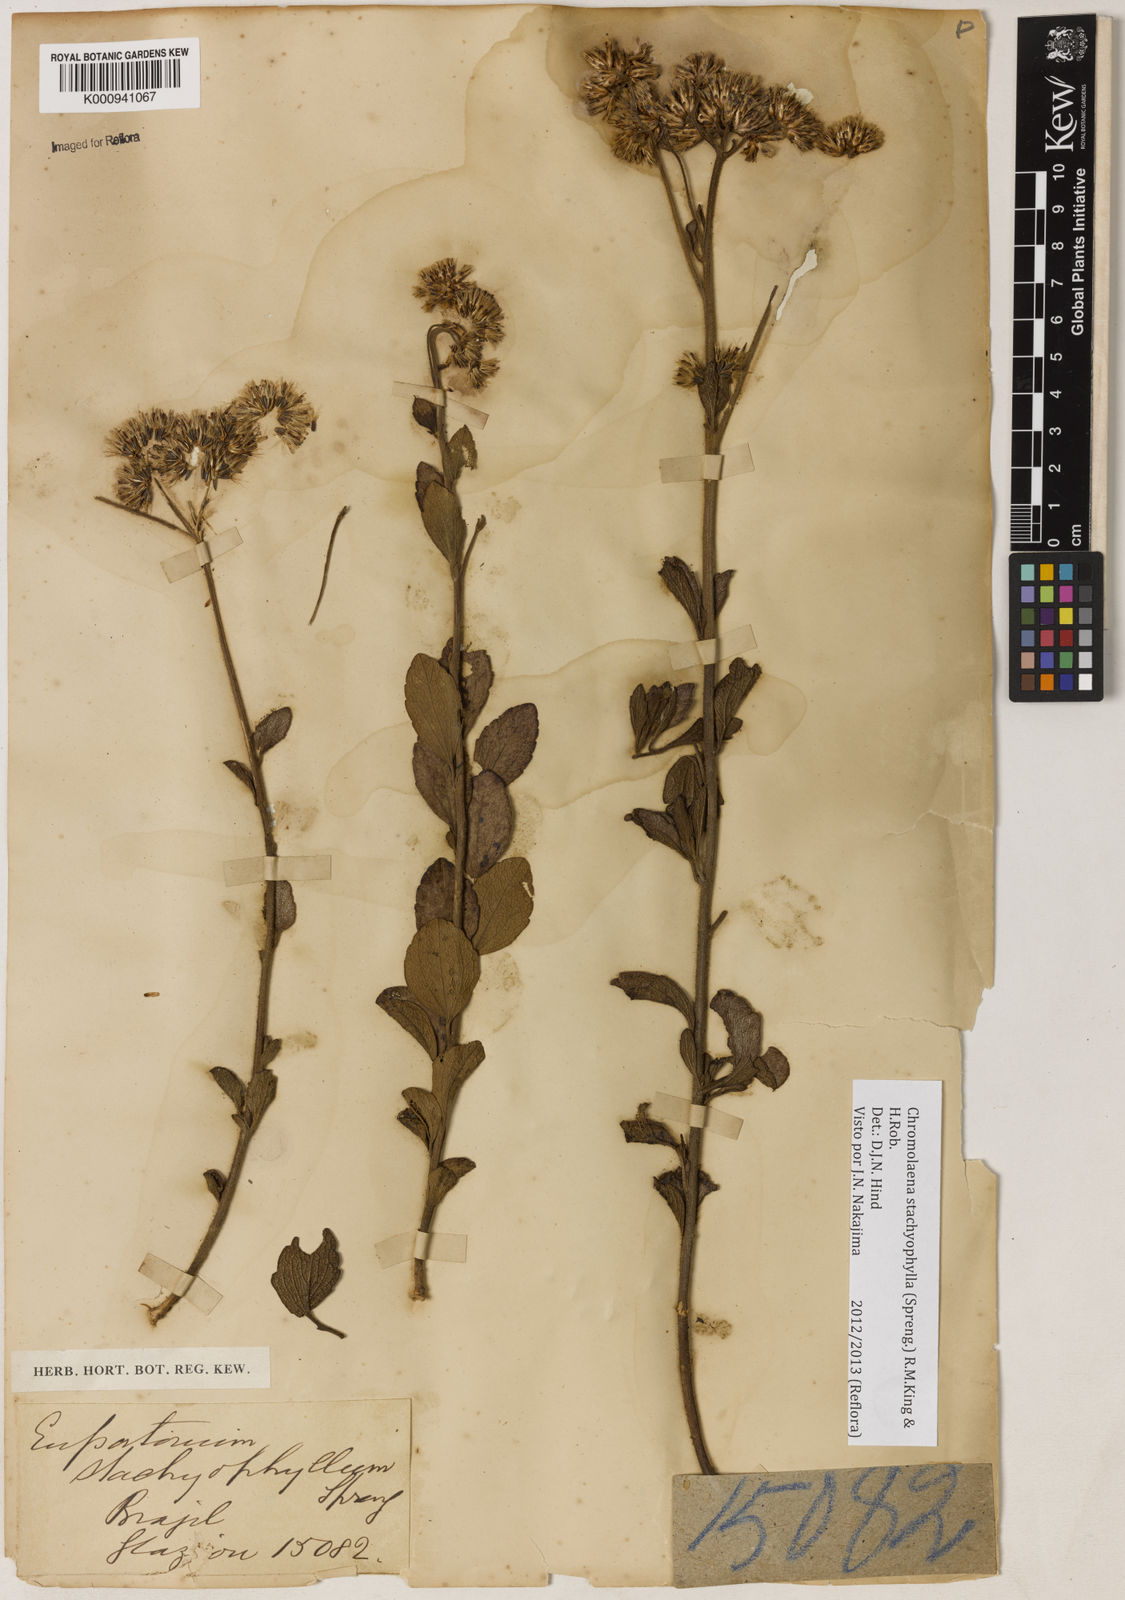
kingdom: Plantae
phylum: Tracheophyta
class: Magnoliopsida
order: Asterales
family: Asteraceae
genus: Chromolaena
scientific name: Chromolaena stachyophylla
